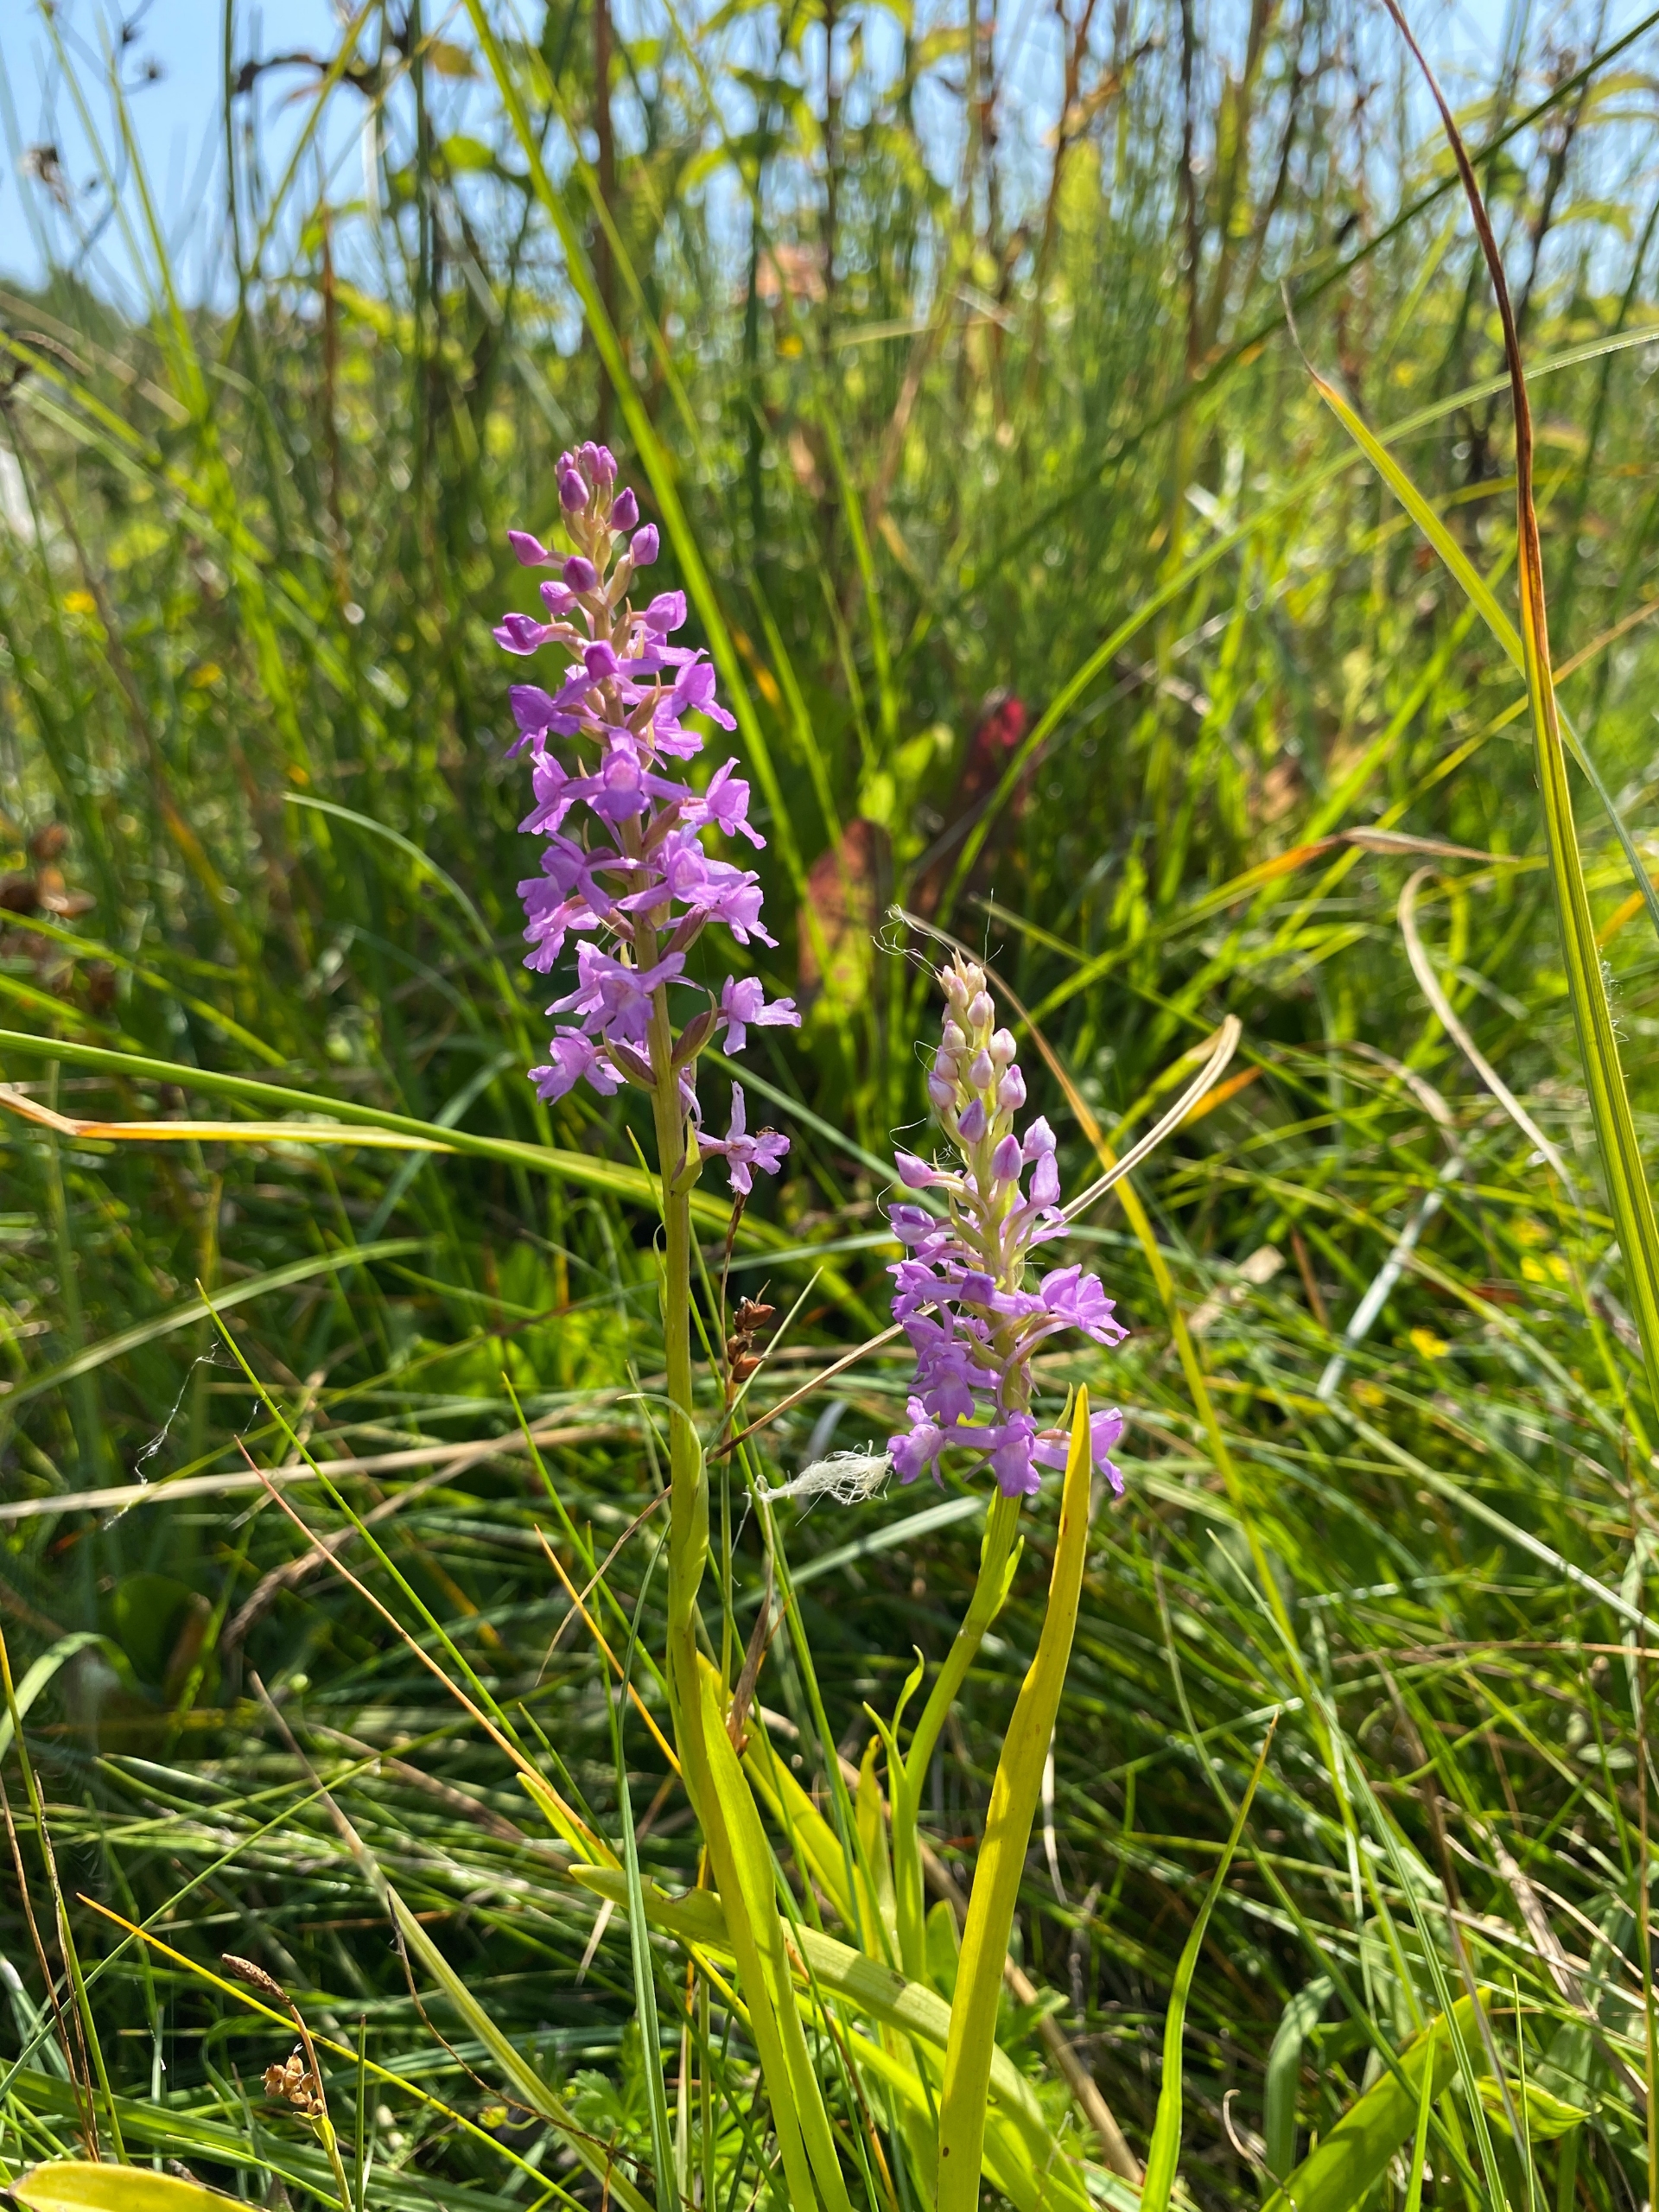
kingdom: Plantae
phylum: Tracheophyta
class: Liliopsida
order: Asparagales
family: Orchidaceae
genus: Gymnadenia
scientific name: Gymnadenia densiflora
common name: Tætblomstret trådspore
